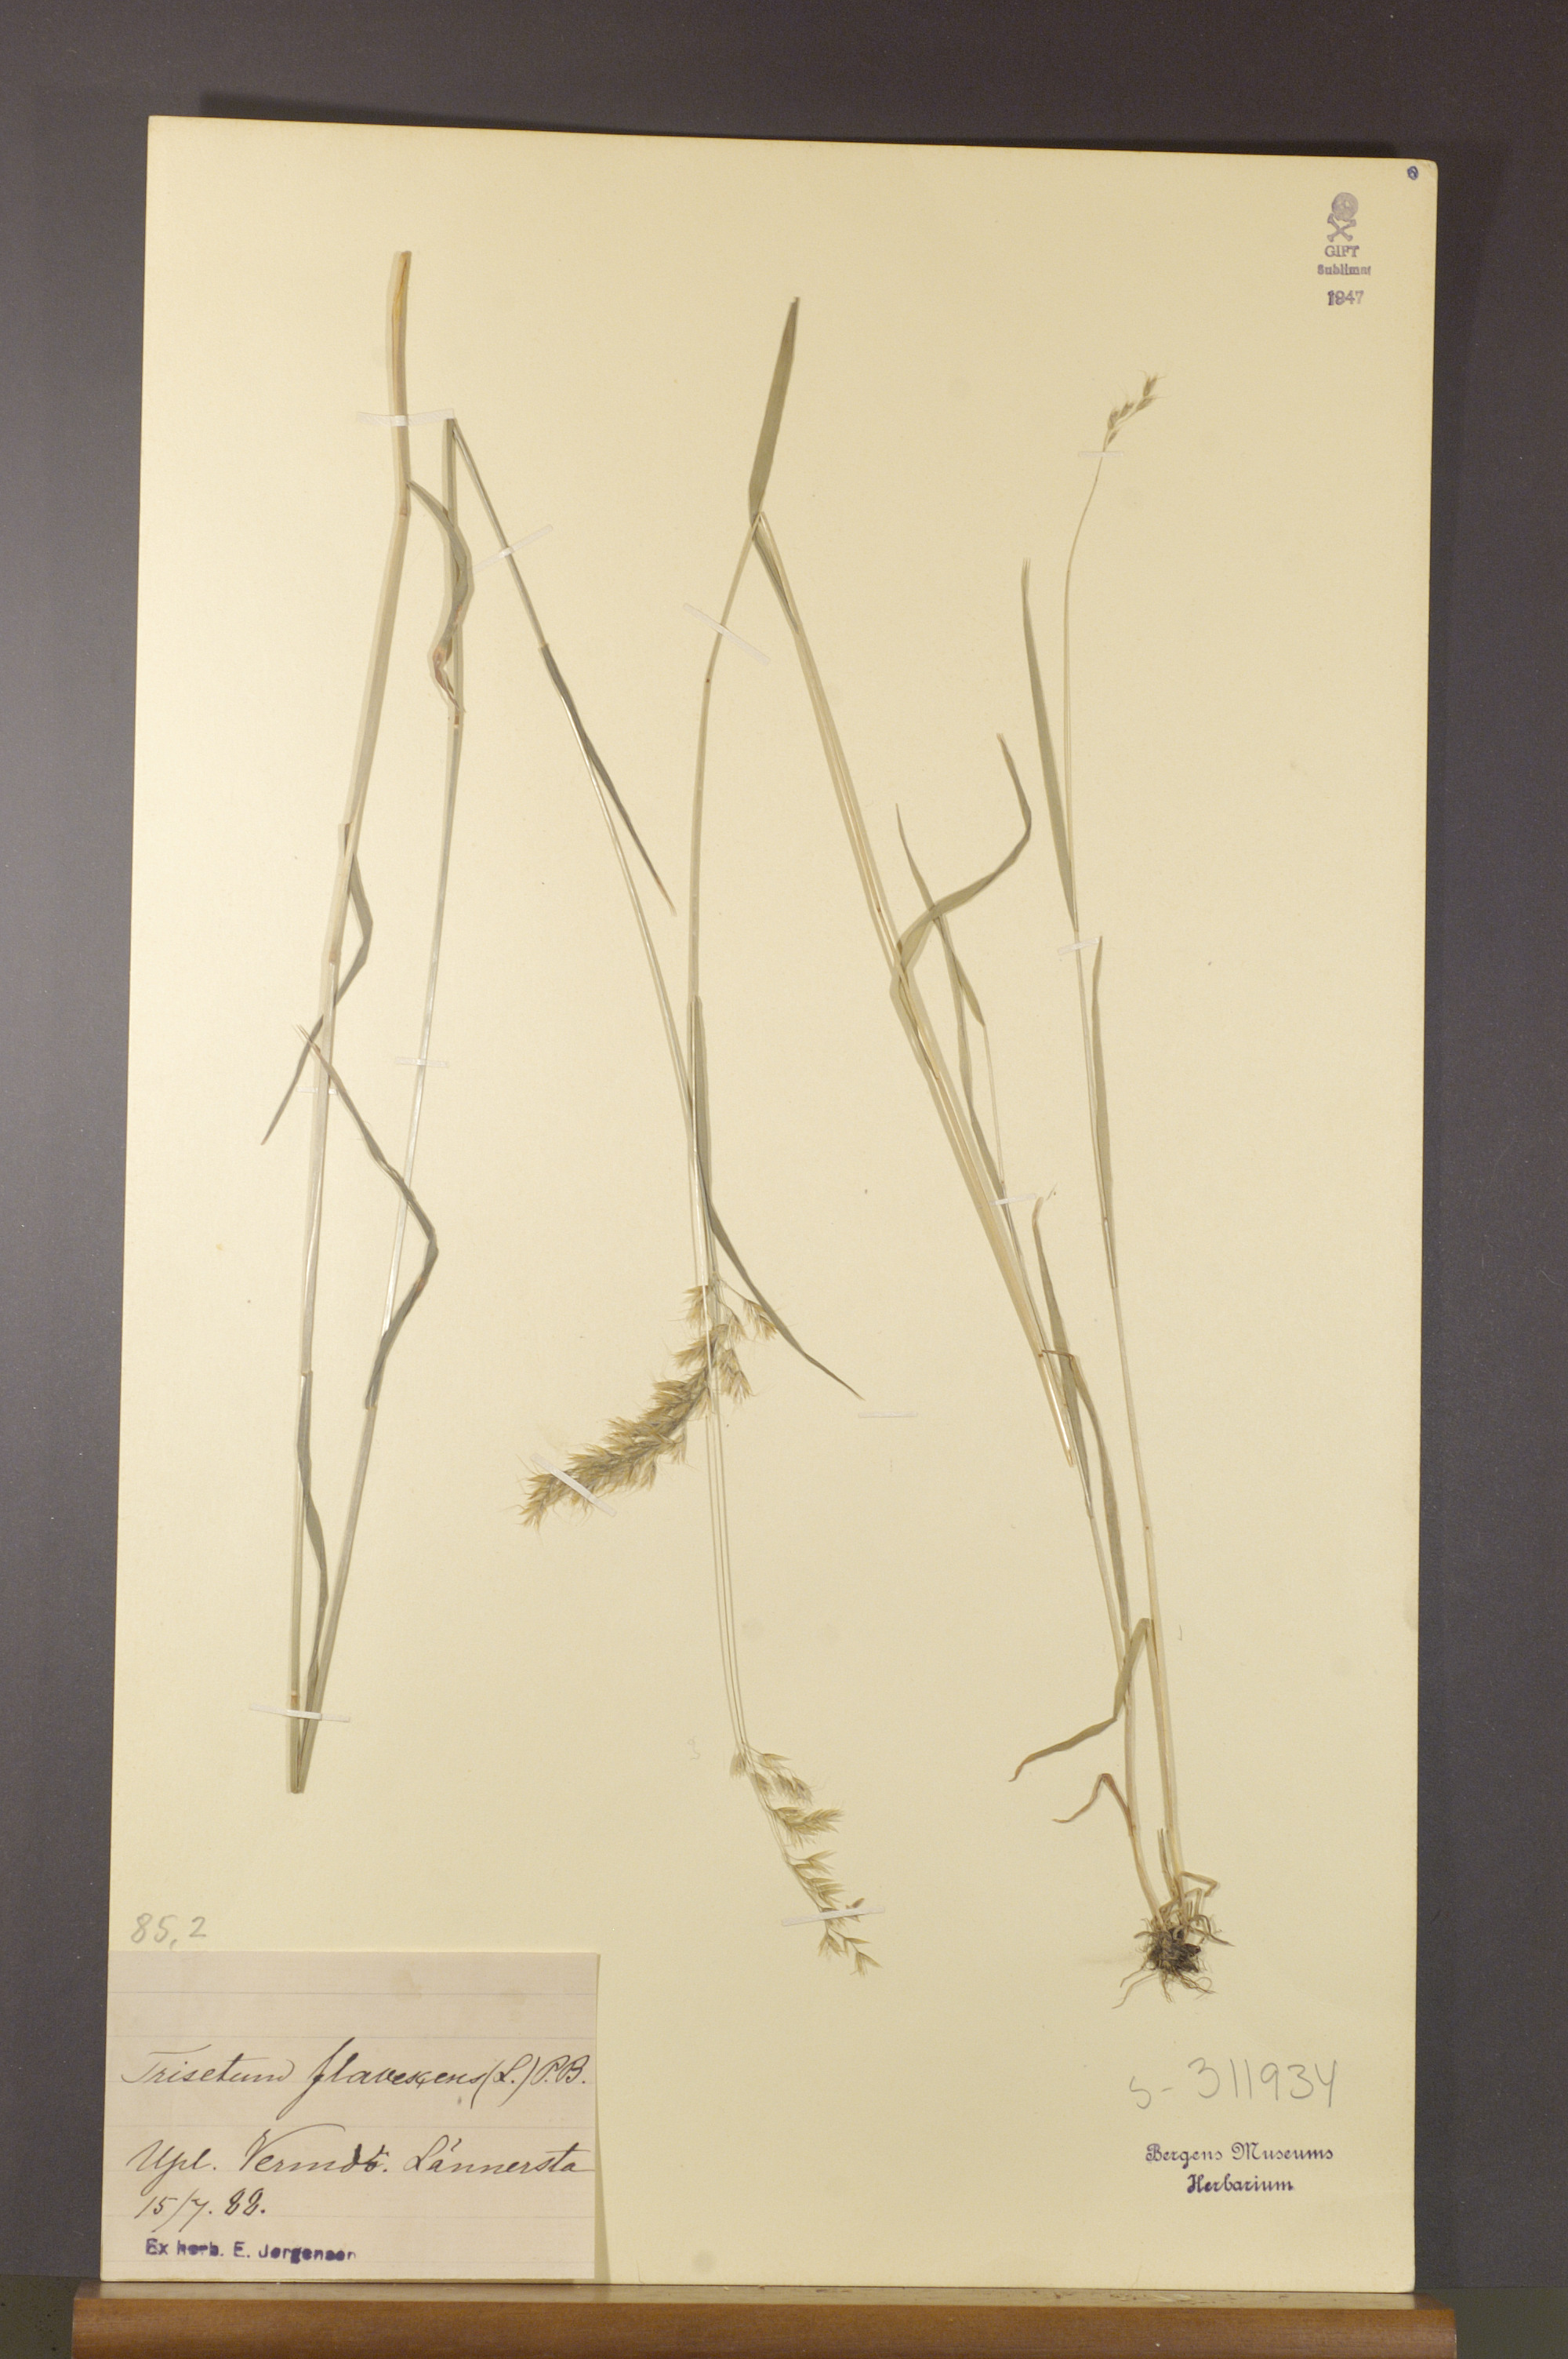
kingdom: Plantae
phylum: Tracheophyta
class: Liliopsida
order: Poales
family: Poaceae
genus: Trisetum
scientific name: Trisetum flavescens
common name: Yellow oat-grass
